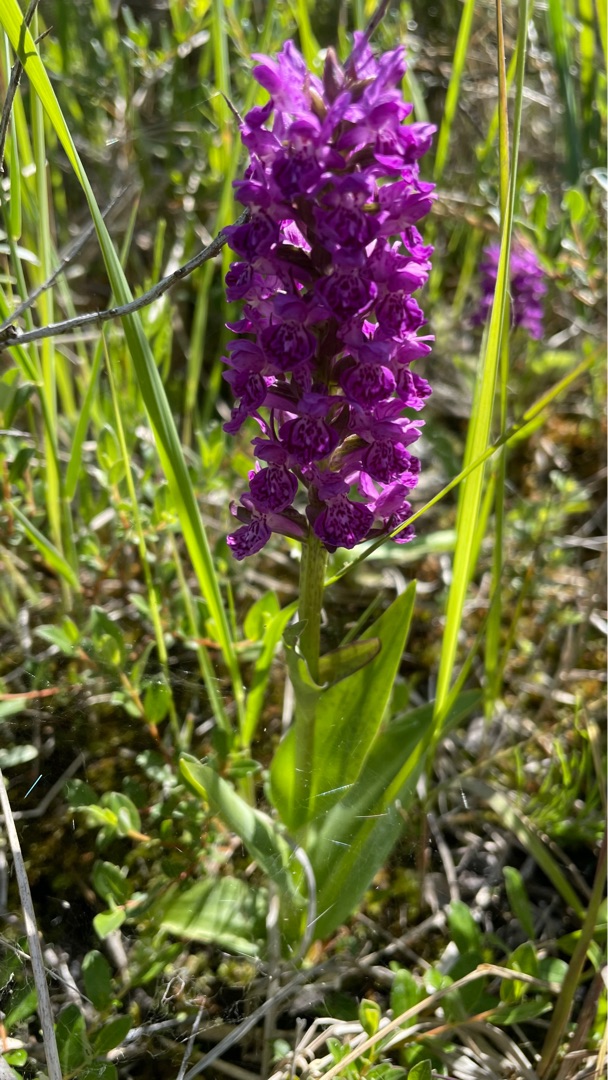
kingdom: Plantae
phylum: Tracheophyta
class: Liliopsida
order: Asparagales
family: Orchidaceae
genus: Dactylorhiza
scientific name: Dactylorhiza majalis
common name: Purpur-gøgeurt
